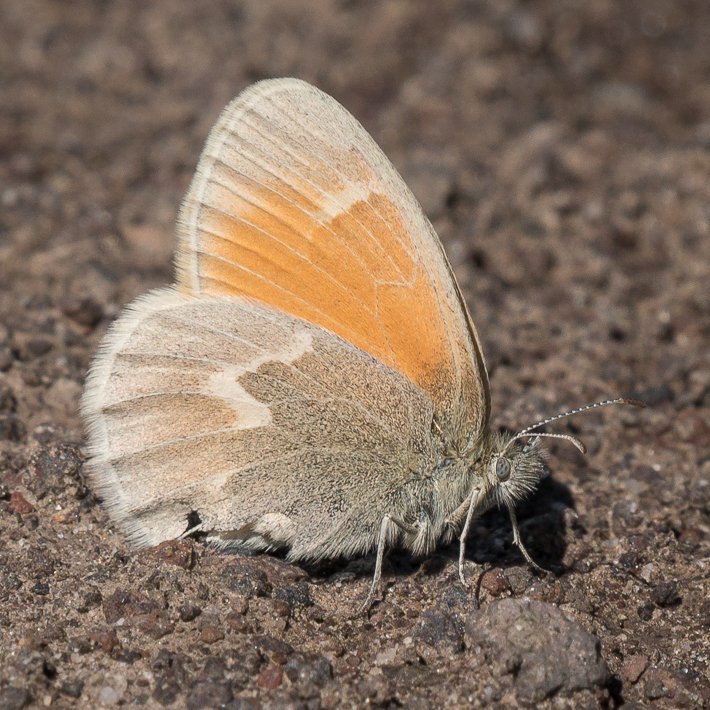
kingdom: Animalia
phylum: Arthropoda
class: Insecta
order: Lepidoptera
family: Nymphalidae
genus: Coenonympha
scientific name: Coenonympha tullia
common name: Large Heath
